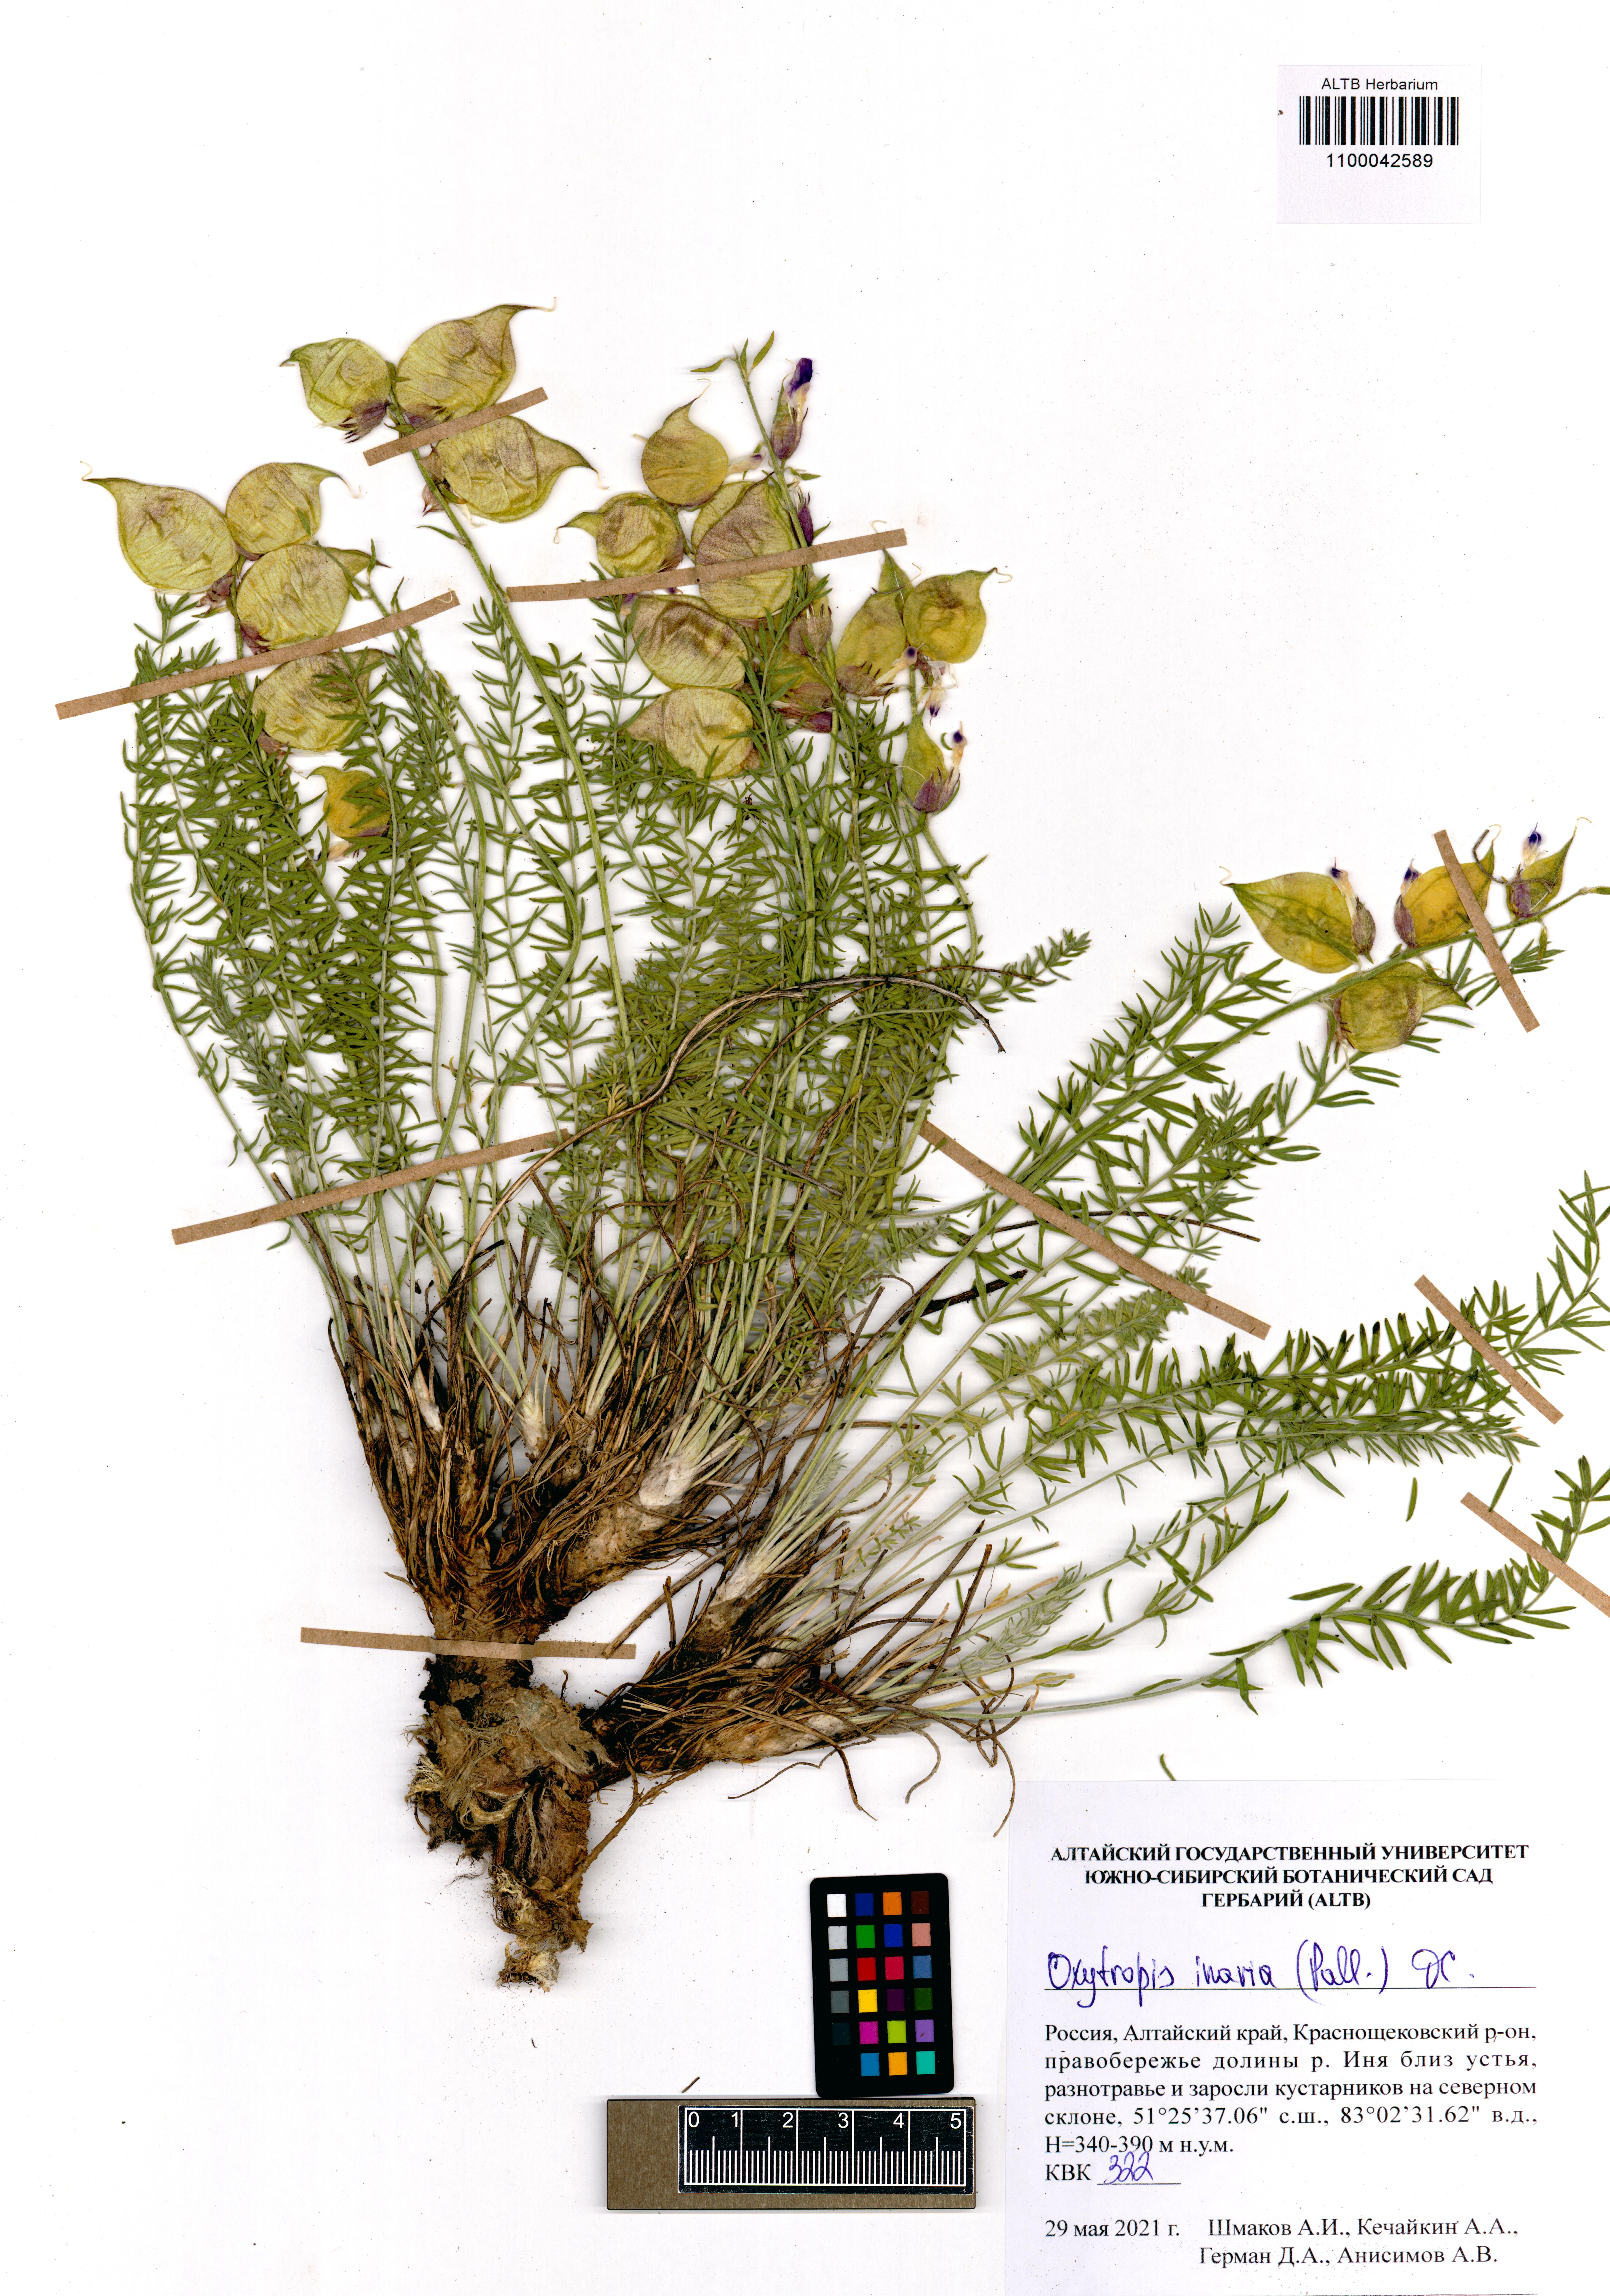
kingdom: Plantae
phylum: Tracheophyta
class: Magnoliopsida
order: Fabales
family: Fabaceae
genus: Oxytropis
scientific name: Oxytropis inaria
